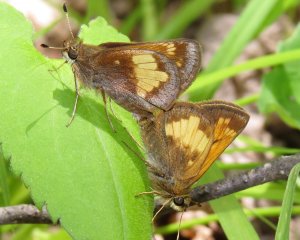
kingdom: Animalia
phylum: Arthropoda
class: Insecta
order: Lepidoptera
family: Hesperiidae
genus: Lon
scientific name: Lon hobomok
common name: Hobomok Skipper
